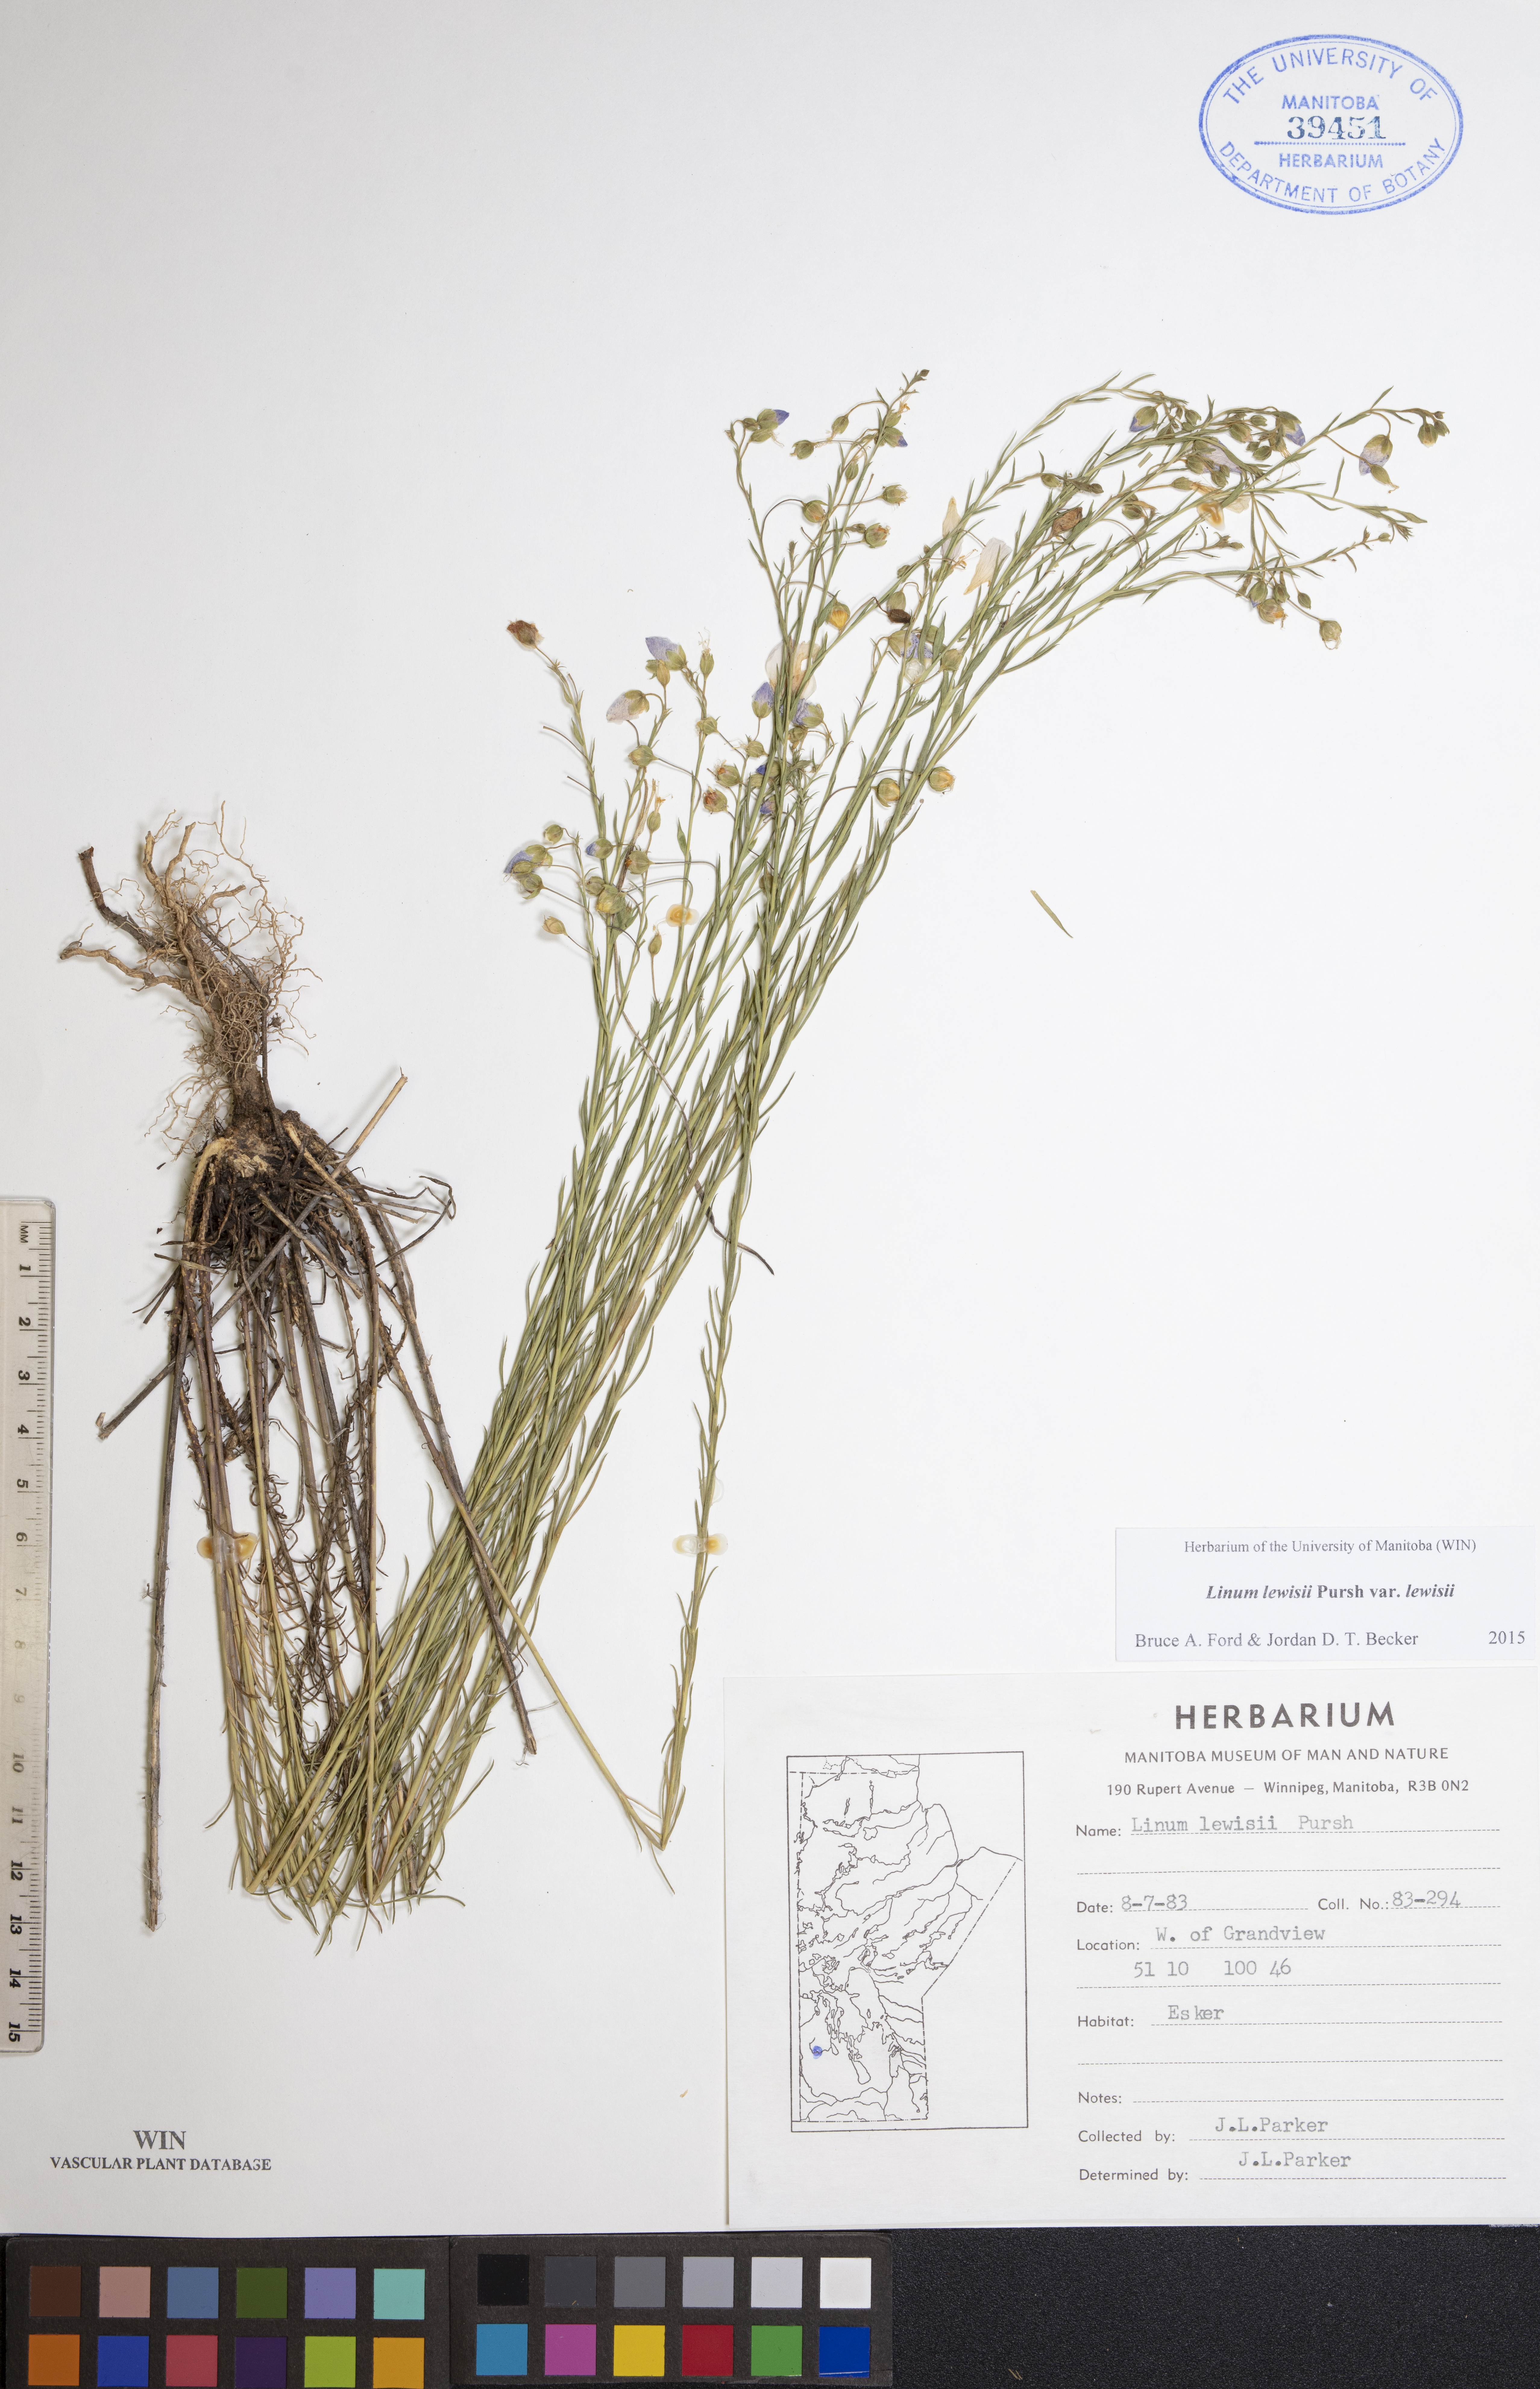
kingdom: Plantae
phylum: Tracheophyta
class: Magnoliopsida
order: Malpighiales
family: Linaceae
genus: Linum
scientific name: Linum lewisii
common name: Prairie flax
